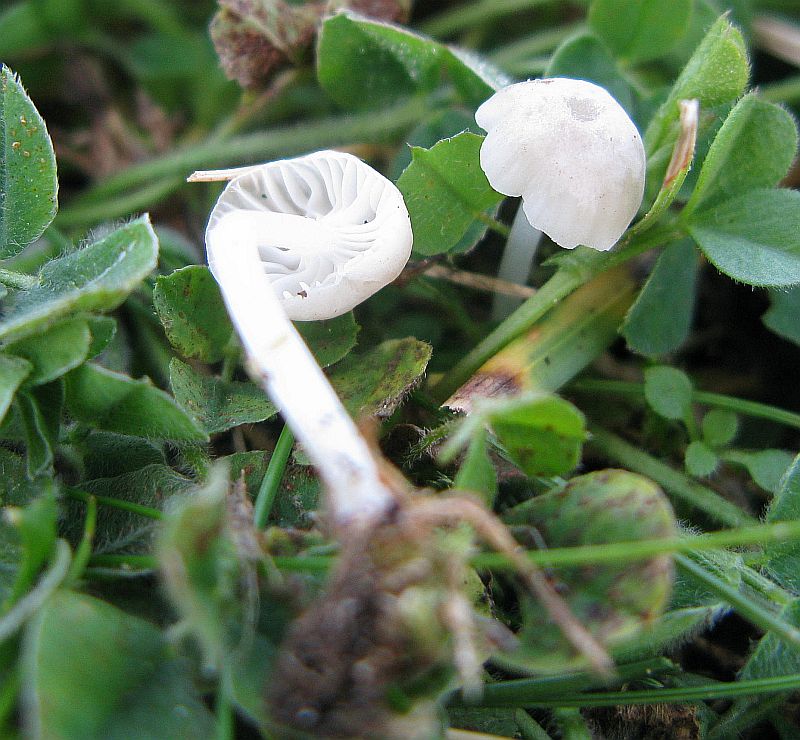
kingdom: Fungi
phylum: Basidiomycota
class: Agaricomycetes
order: Agaricales
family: Mycenaceae
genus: Hemimycena
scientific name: Hemimycena mairei
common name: voks-huesvamp
